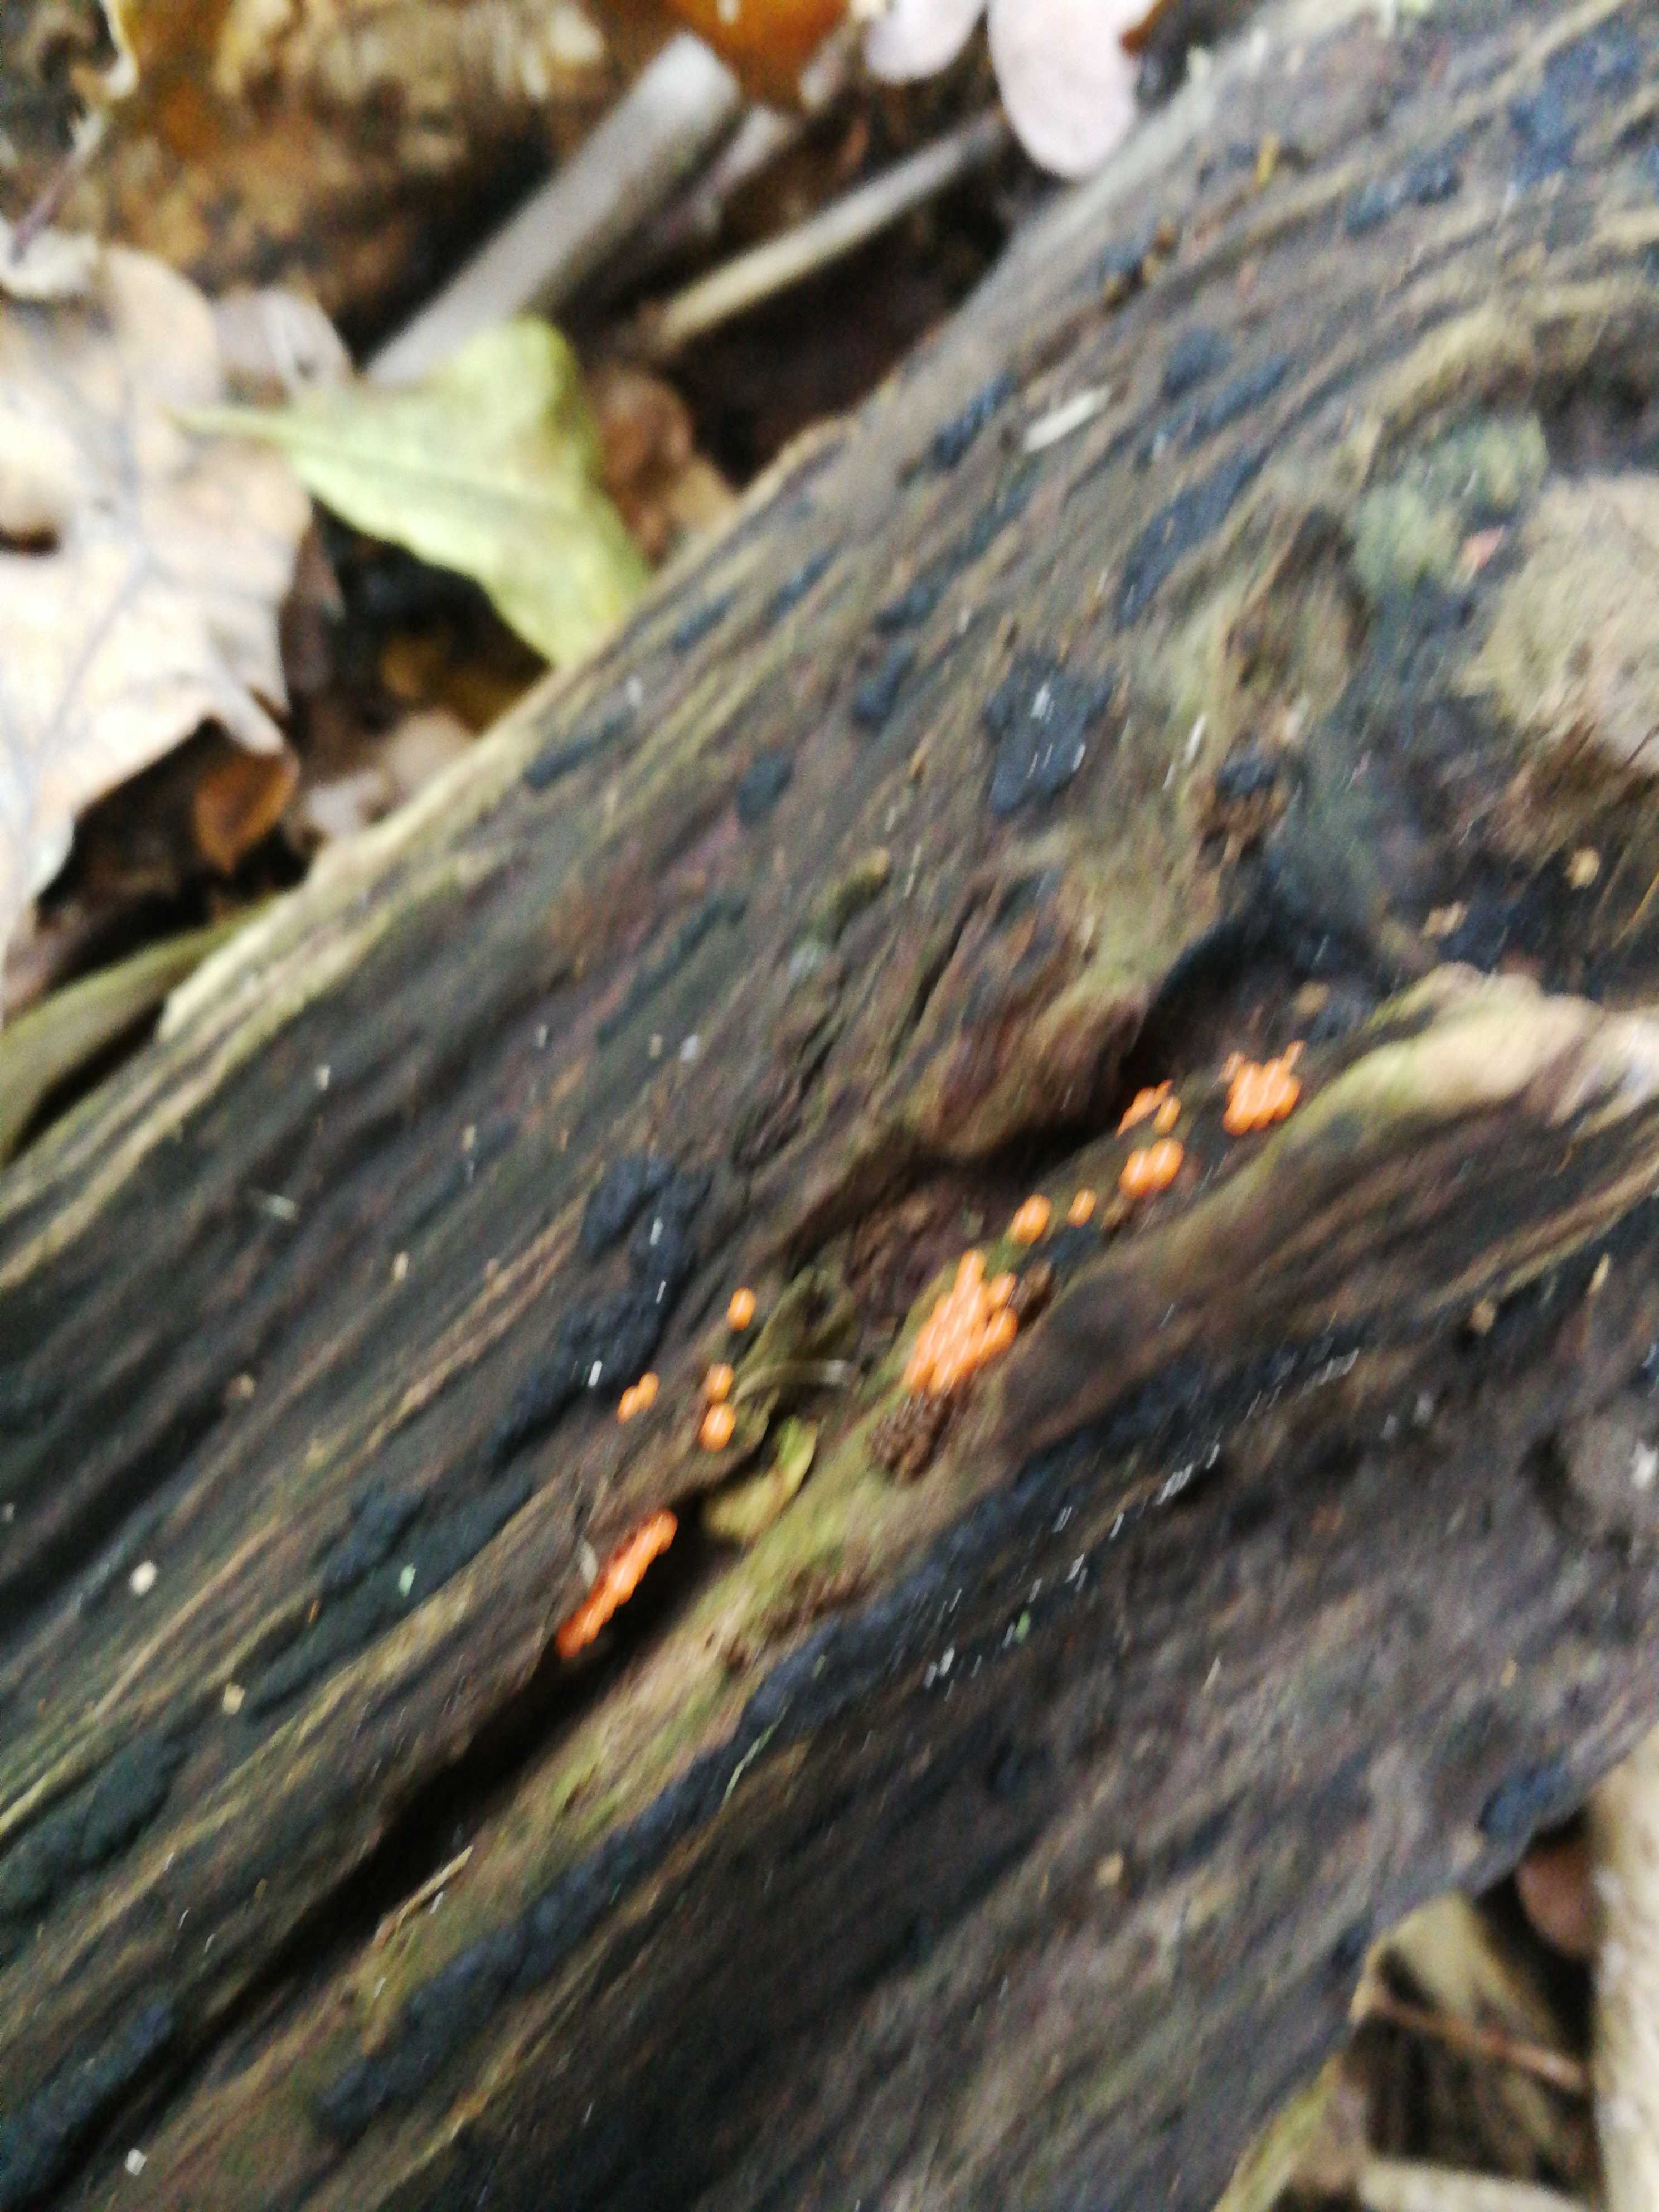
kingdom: Fungi
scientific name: Fungi
